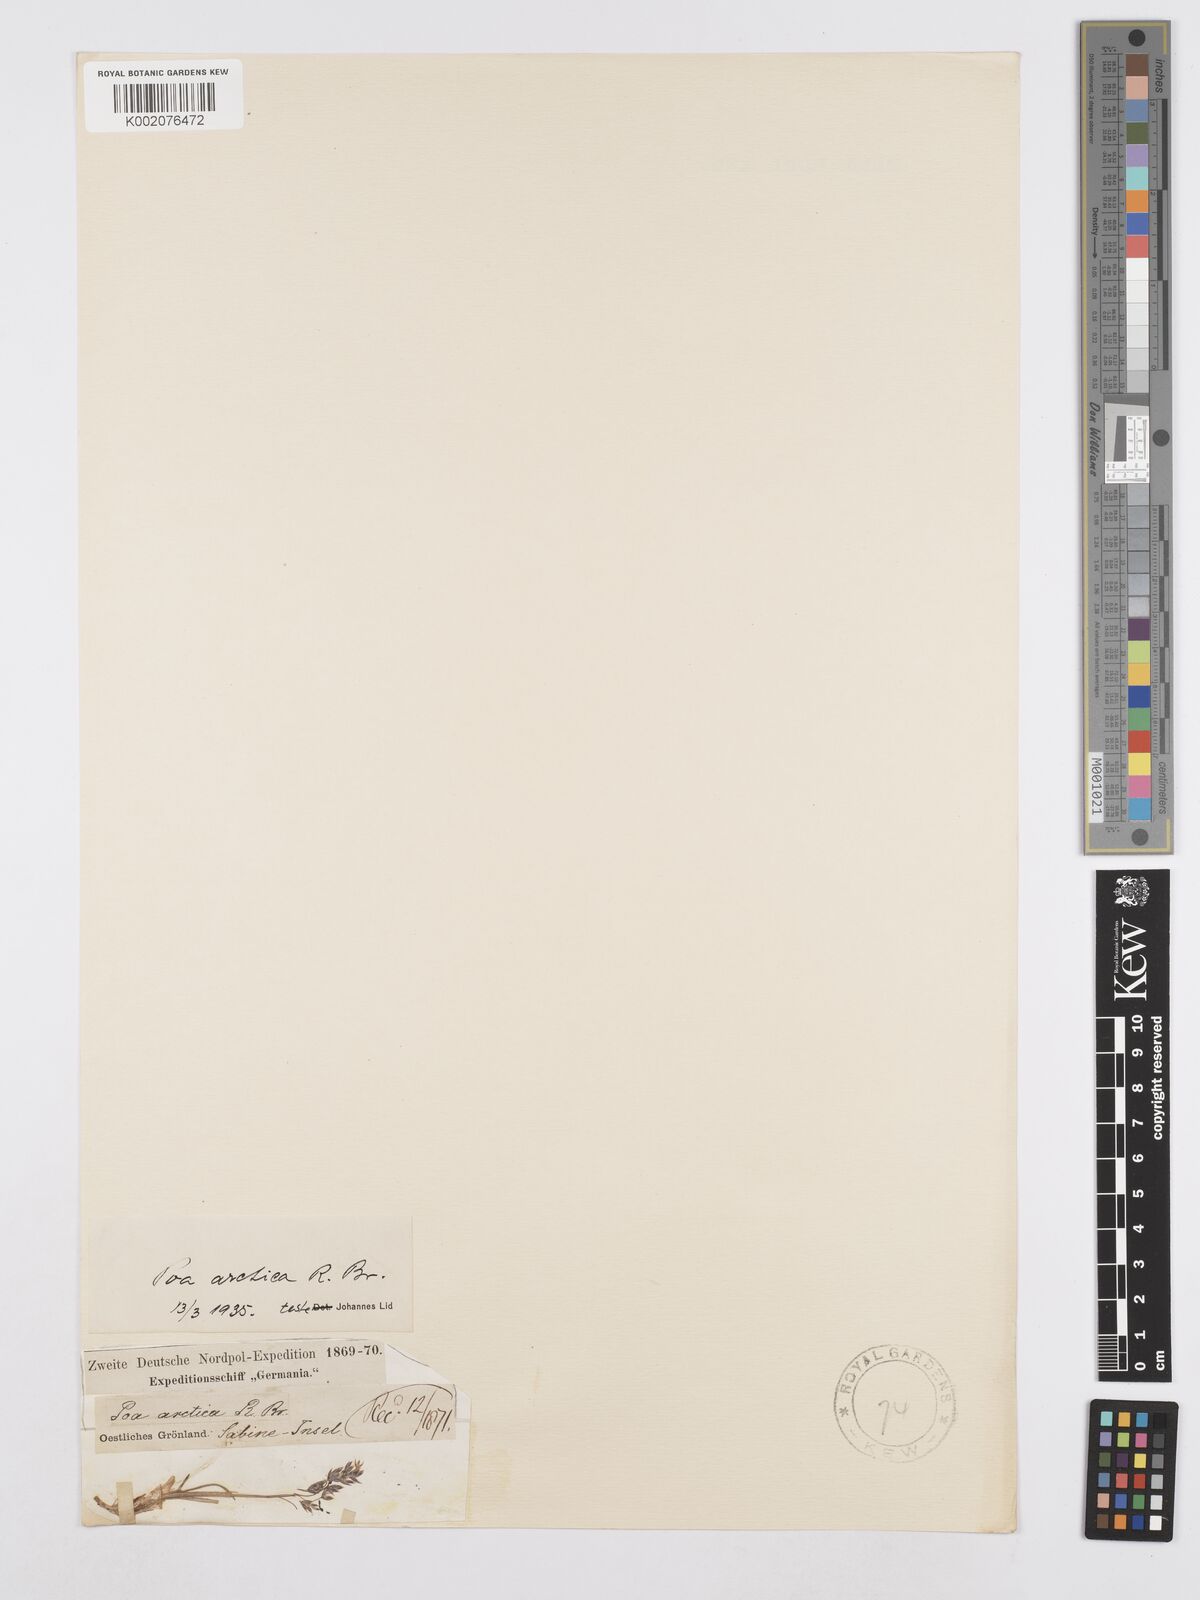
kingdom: Plantae
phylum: Tracheophyta
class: Liliopsida
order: Poales
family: Poaceae
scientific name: Poaceae
